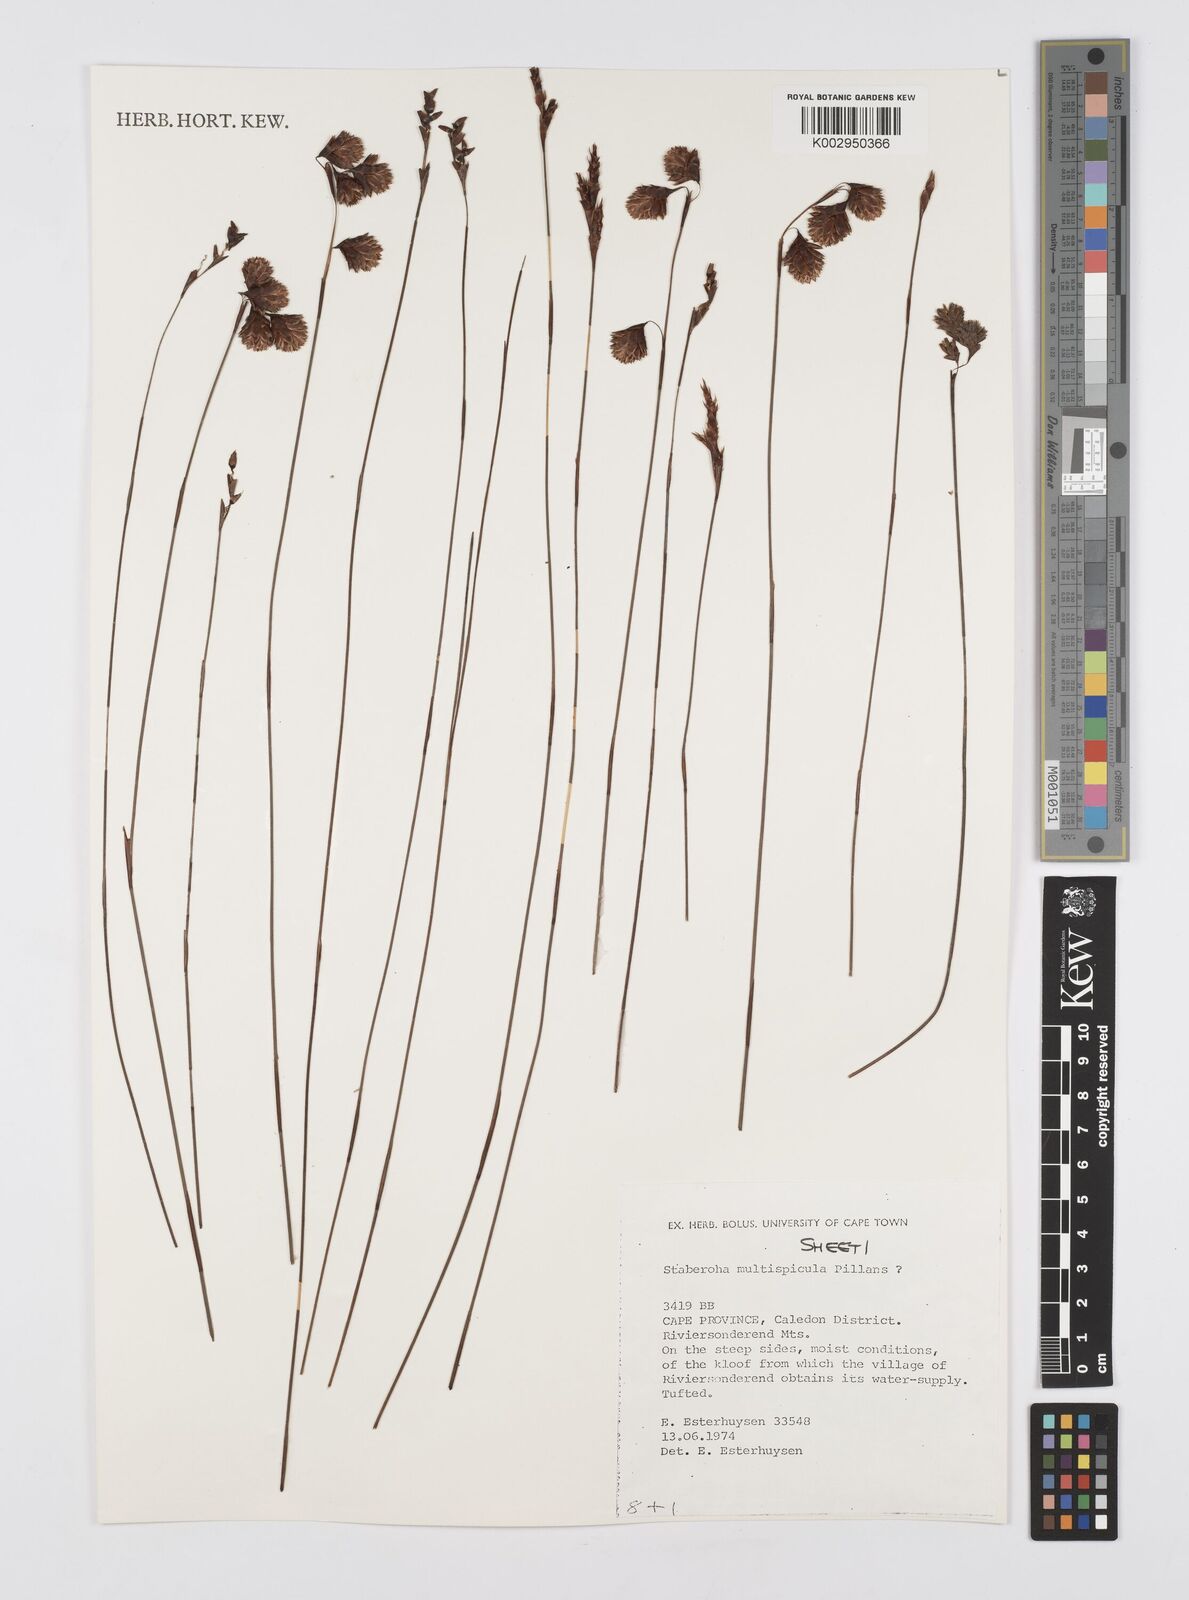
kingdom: Plantae
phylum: Tracheophyta
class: Liliopsida
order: Poales
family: Restionaceae
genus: Staberoha
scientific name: Staberoha multispicula
